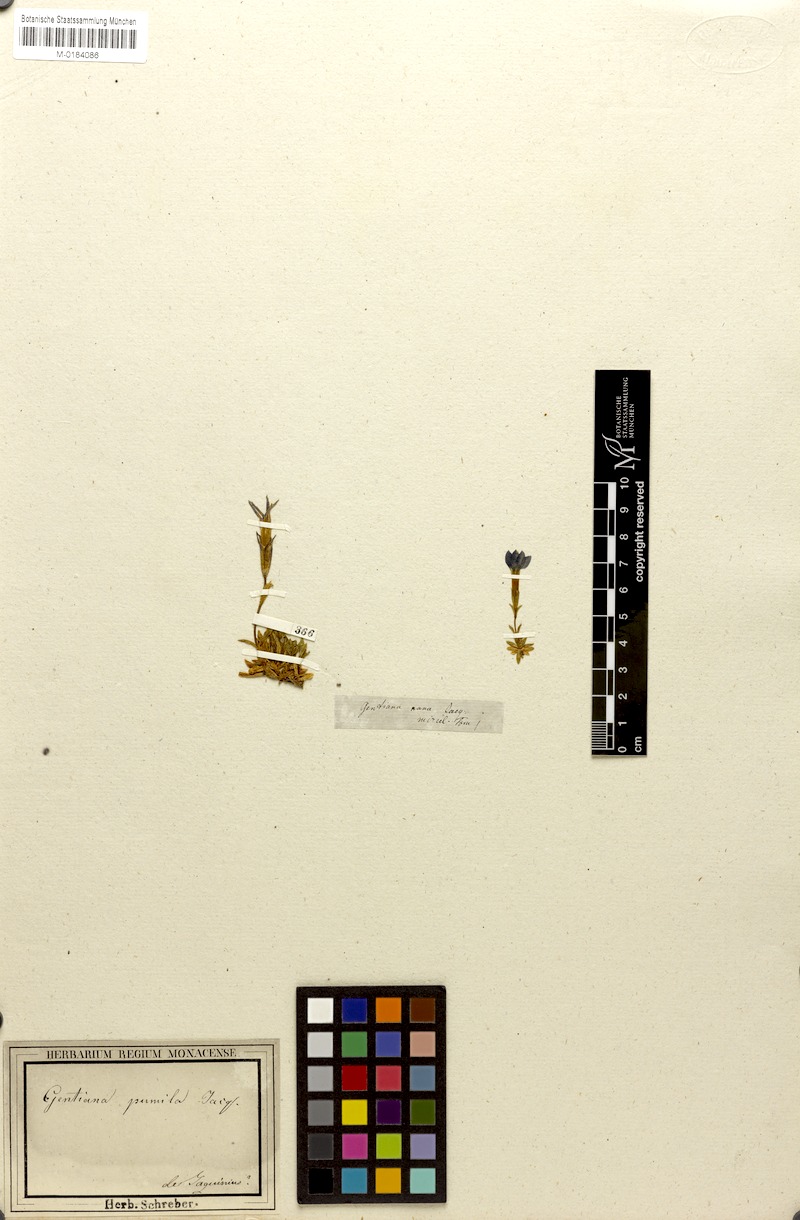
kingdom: Plantae
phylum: Tracheophyta
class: Magnoliopsida
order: Gentianales
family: Gentianaceae
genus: Gentiana
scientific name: Gentiana pumila
